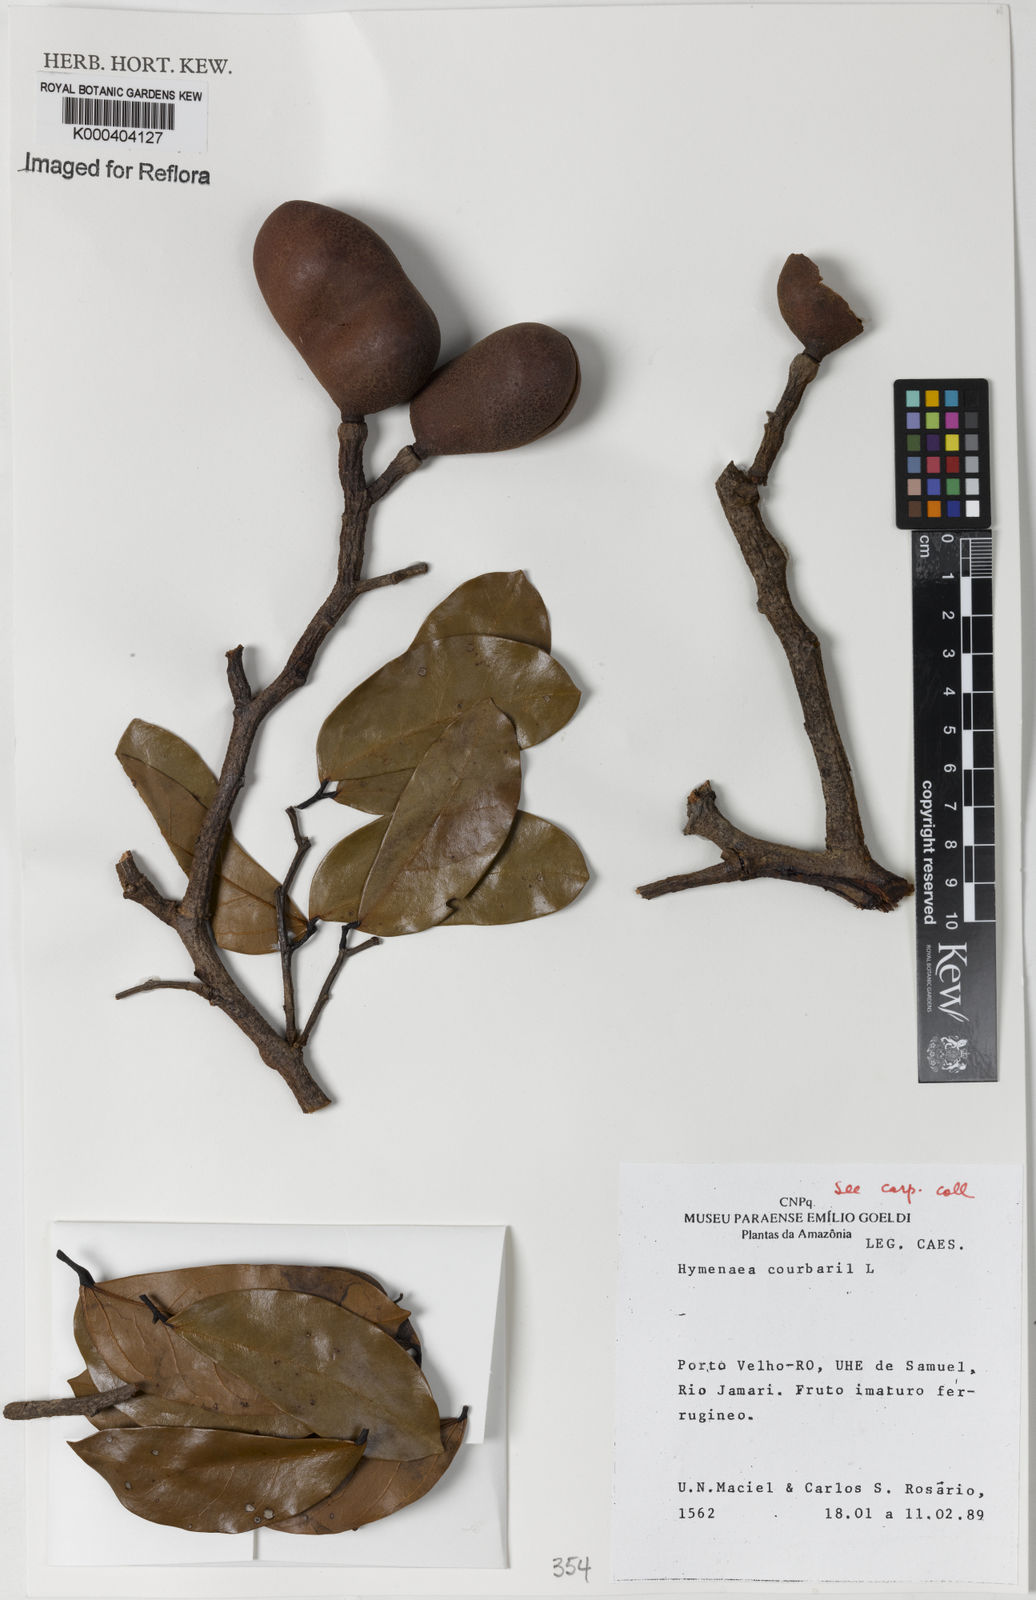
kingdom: Plantae
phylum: Tracheophyta
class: Magnoliopsida
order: Fabales
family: Fabaceae
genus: Hymenaea
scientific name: Hymenaea courbaril
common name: Brazilian copal
